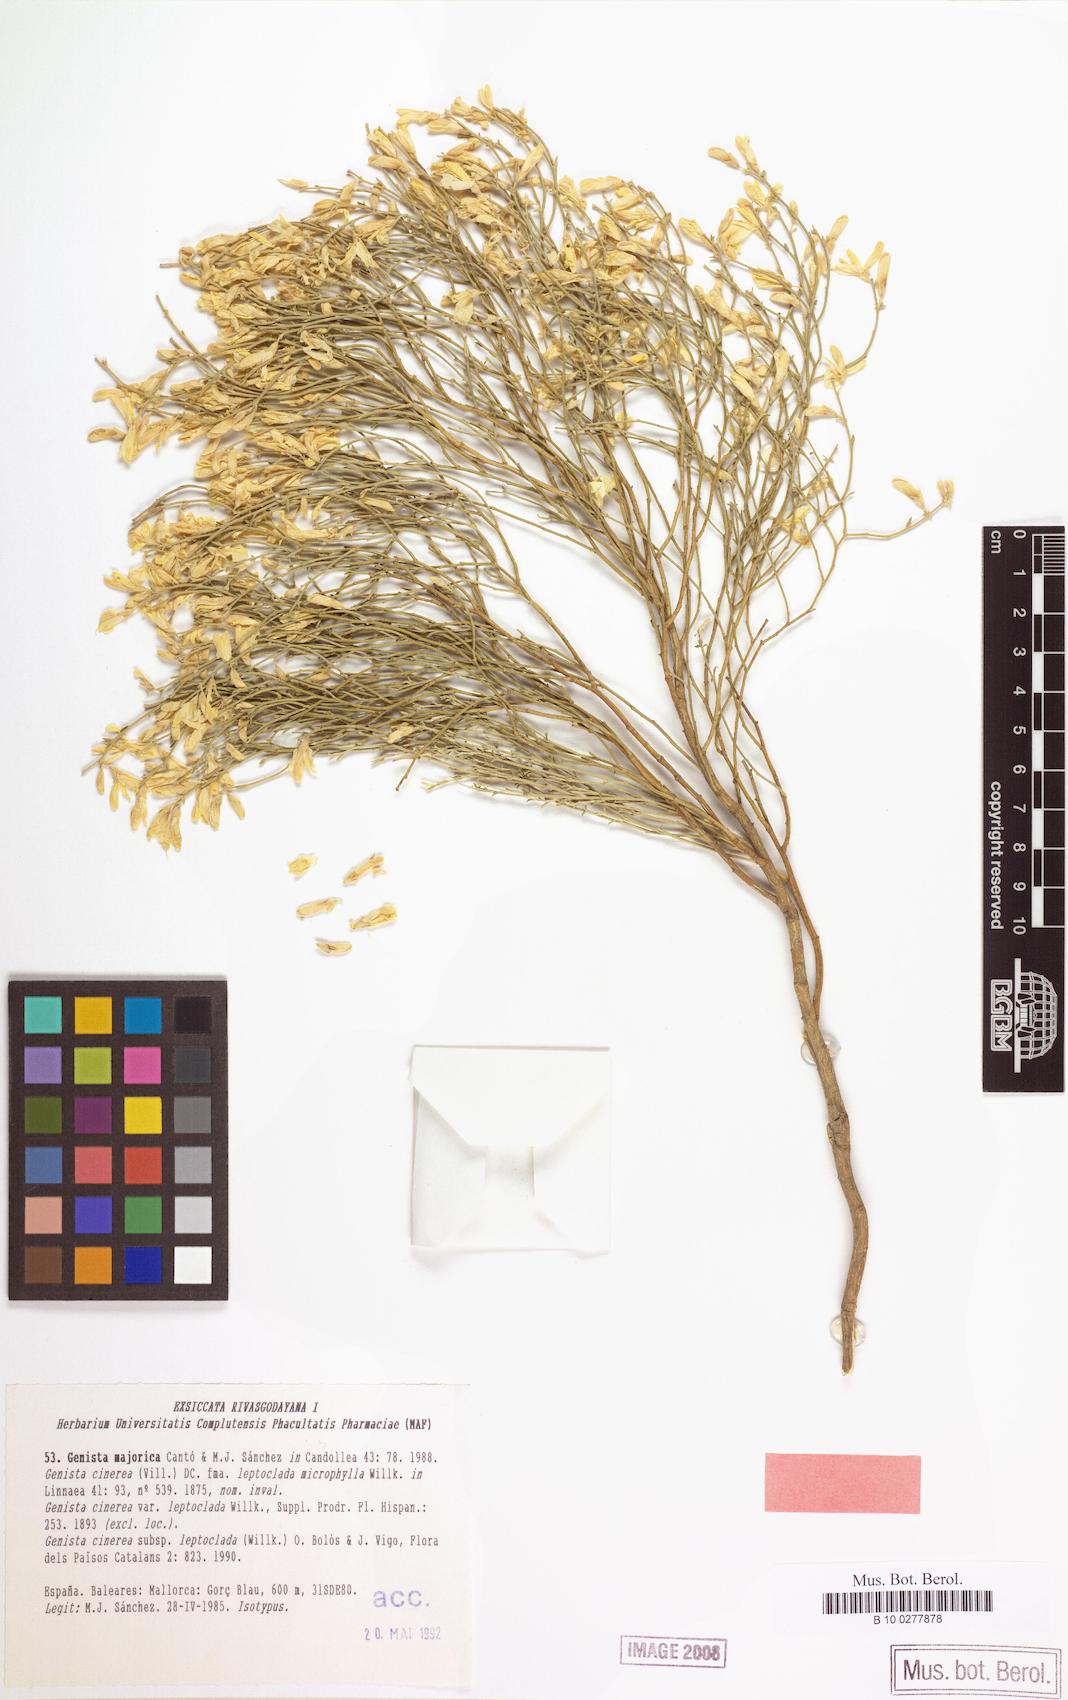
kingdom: Plantae
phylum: Tracheophyta
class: Magnoliopsida
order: Fabales
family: Fabaceae
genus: Genista
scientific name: Genista majorica
